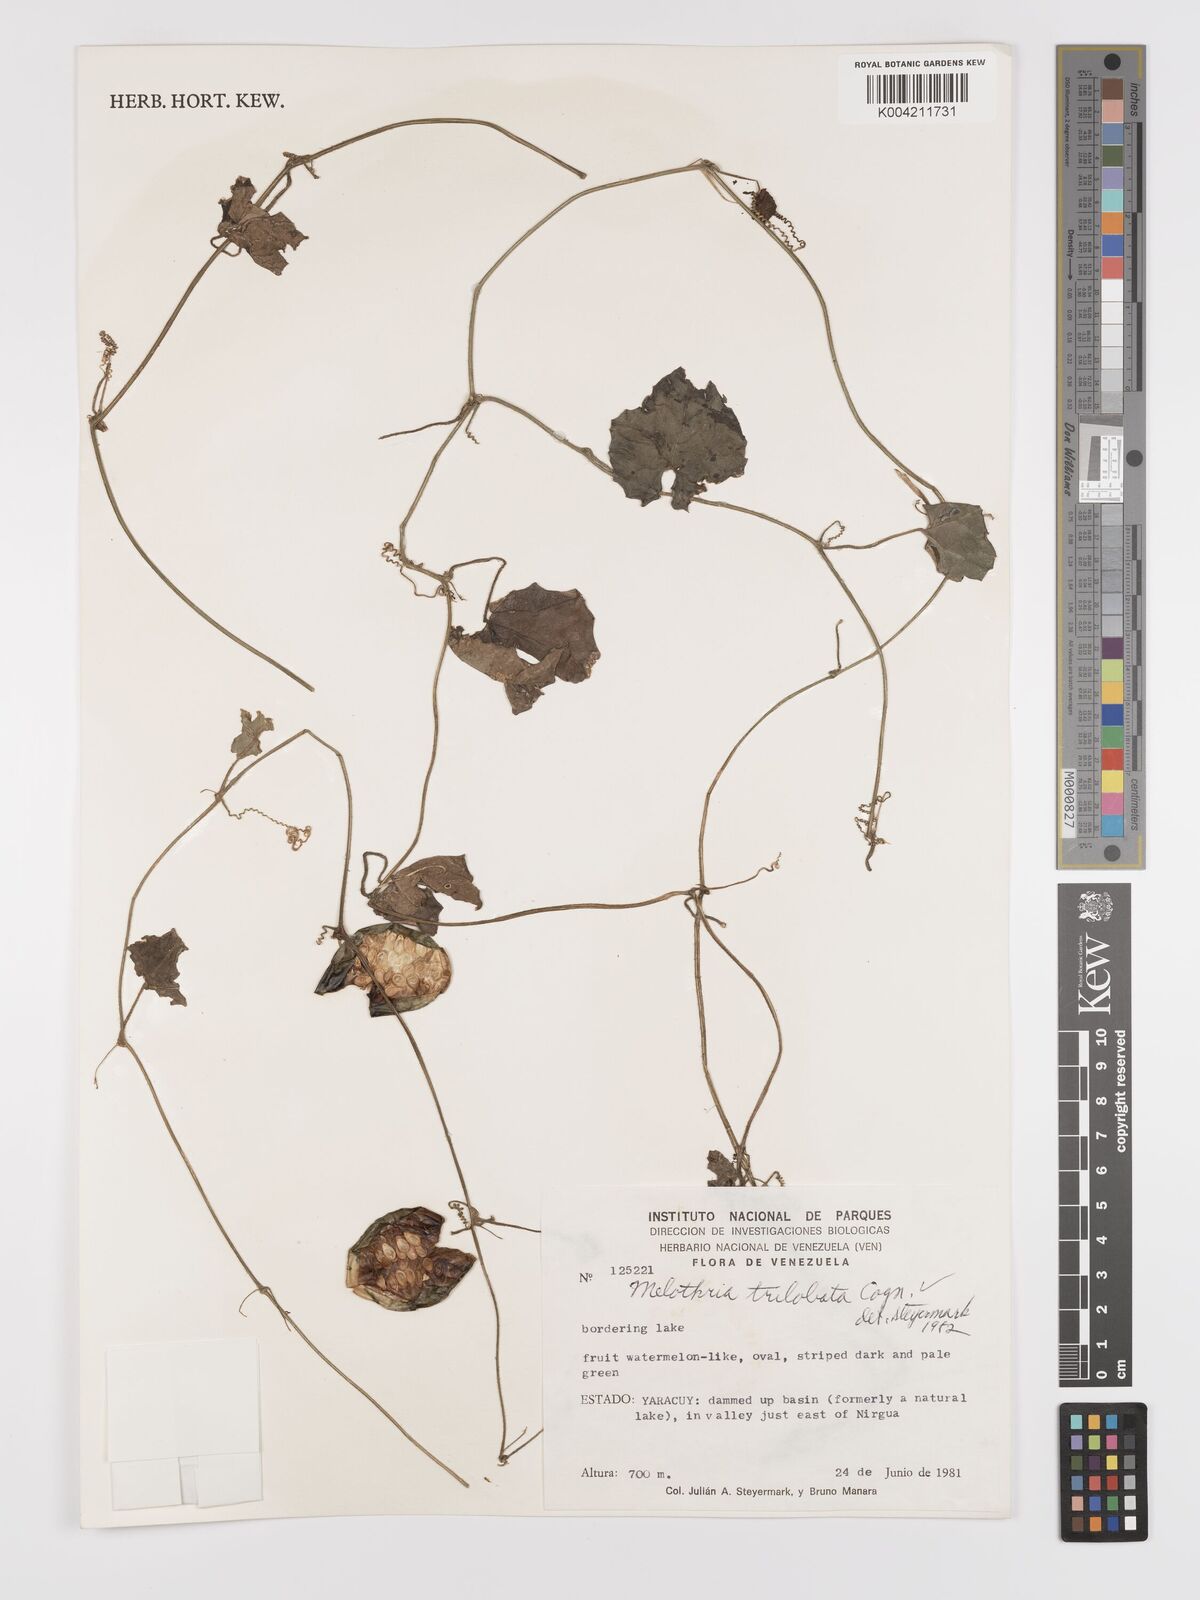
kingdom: Plantae
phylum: Tracheophyta
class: Magnoliopsida
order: Cucurbitales
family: Cucurbitaceae
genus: Melothria
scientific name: Melothria trilobata
